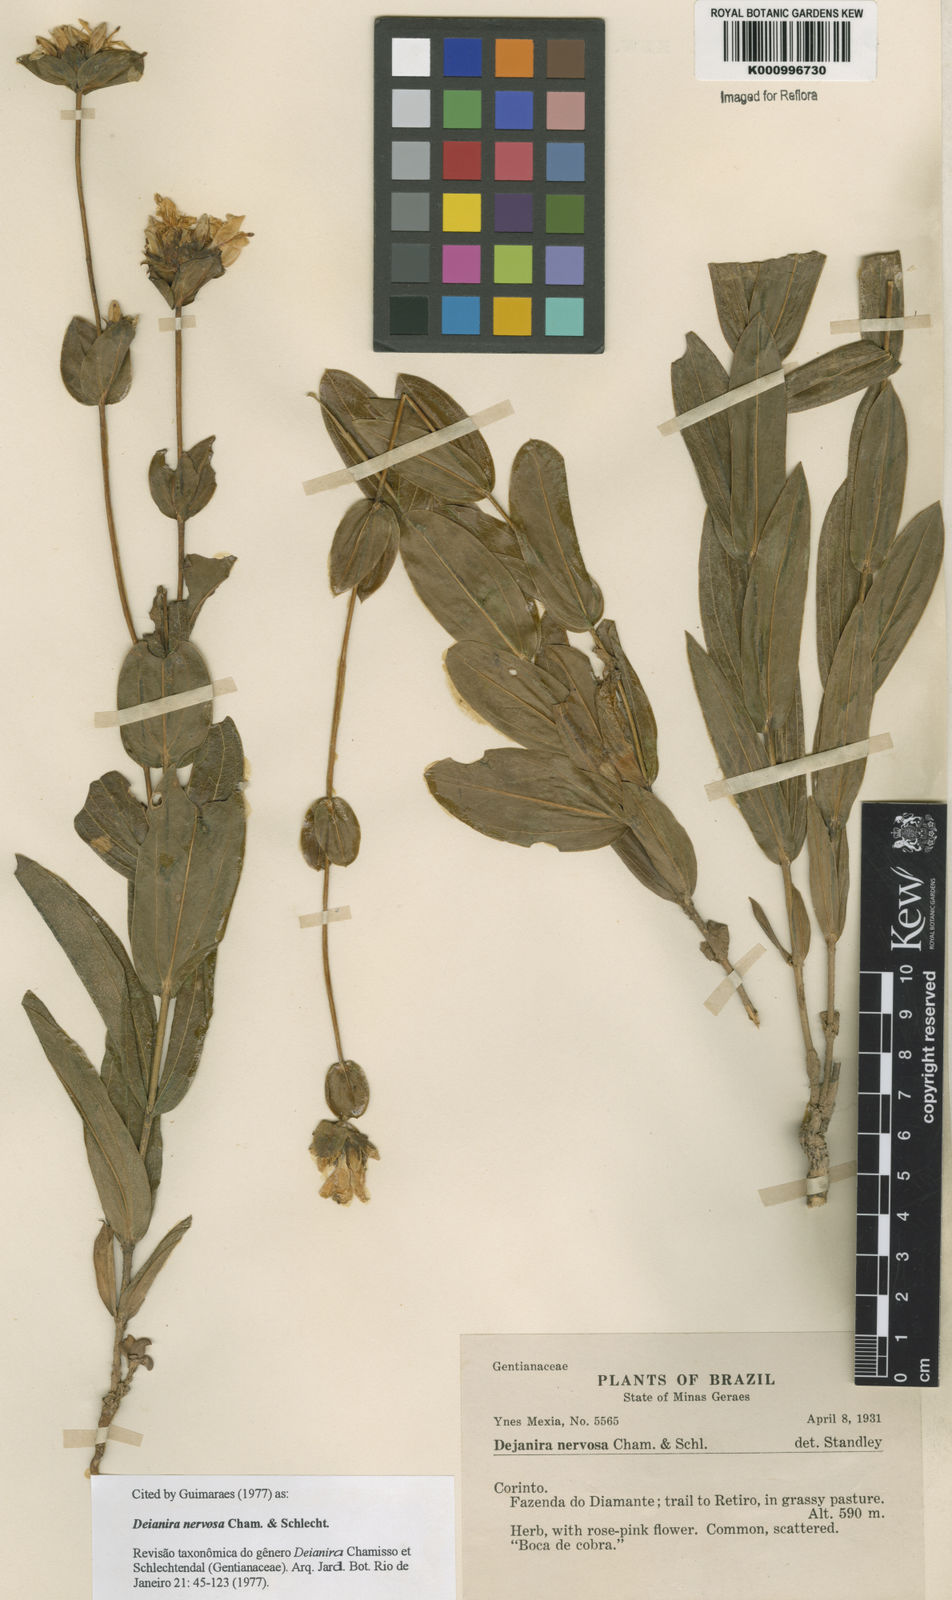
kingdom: Plantae
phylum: Tracheophyta
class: Magnoliopsida
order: Gentianales
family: Gentianaceae
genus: Deianira
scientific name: Deianira nervosa
